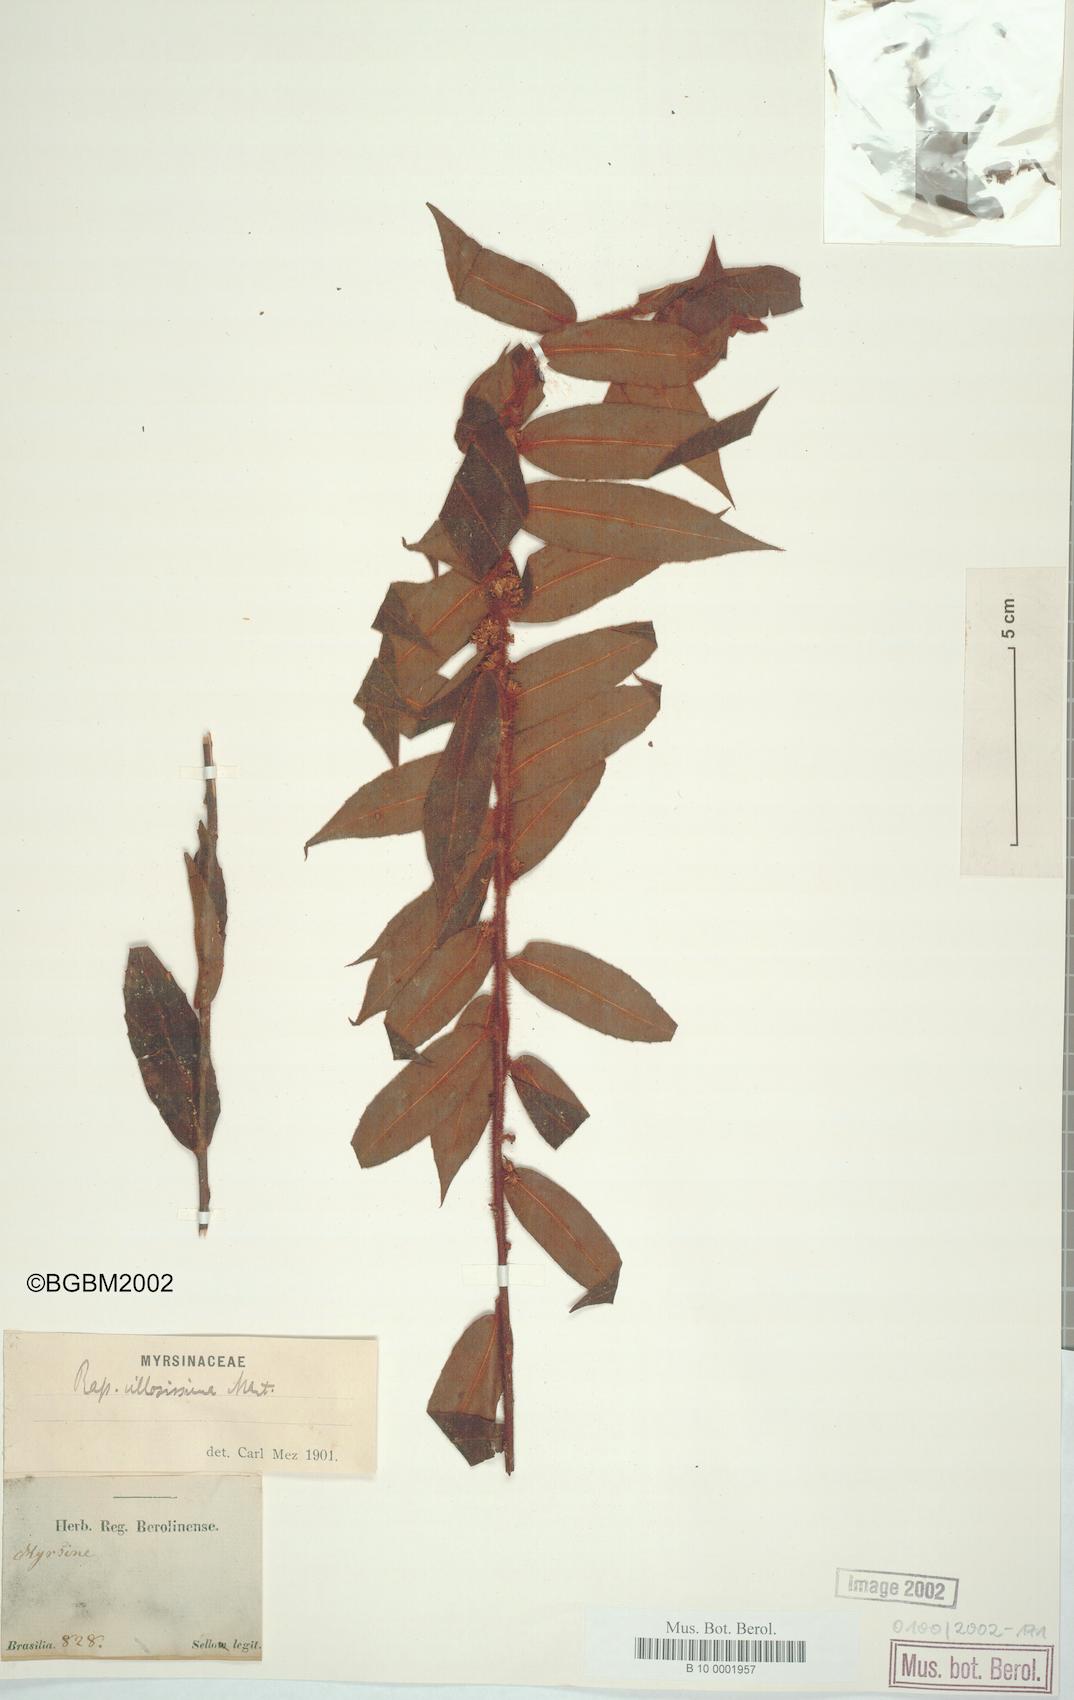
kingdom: Plantae
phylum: Tracheophyta
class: Magnoliopsida
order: Ericales
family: Primulaceae
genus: Myrsine
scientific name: Myrsine villosissima
